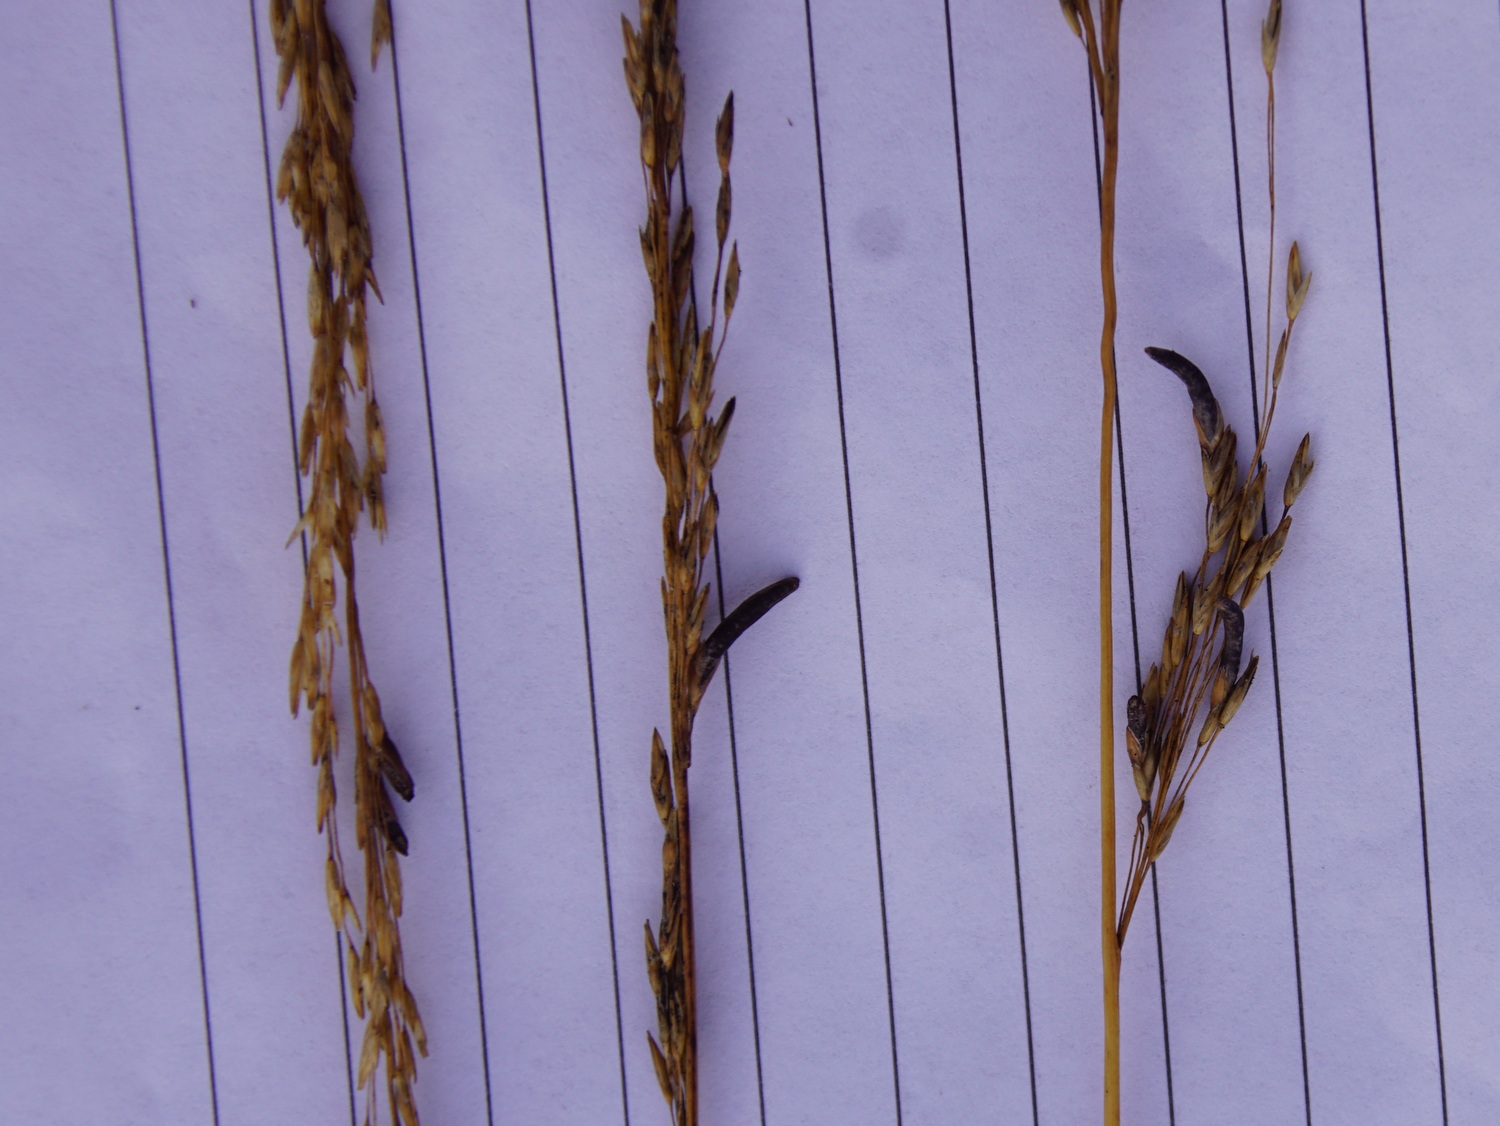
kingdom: Fungi
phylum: Ascomycota
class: Sordariomycetes
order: Hypocreales
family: Clavicipitaceae
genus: Claviceps
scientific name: Claviceps purpurea
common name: almindelig meldrøjer
